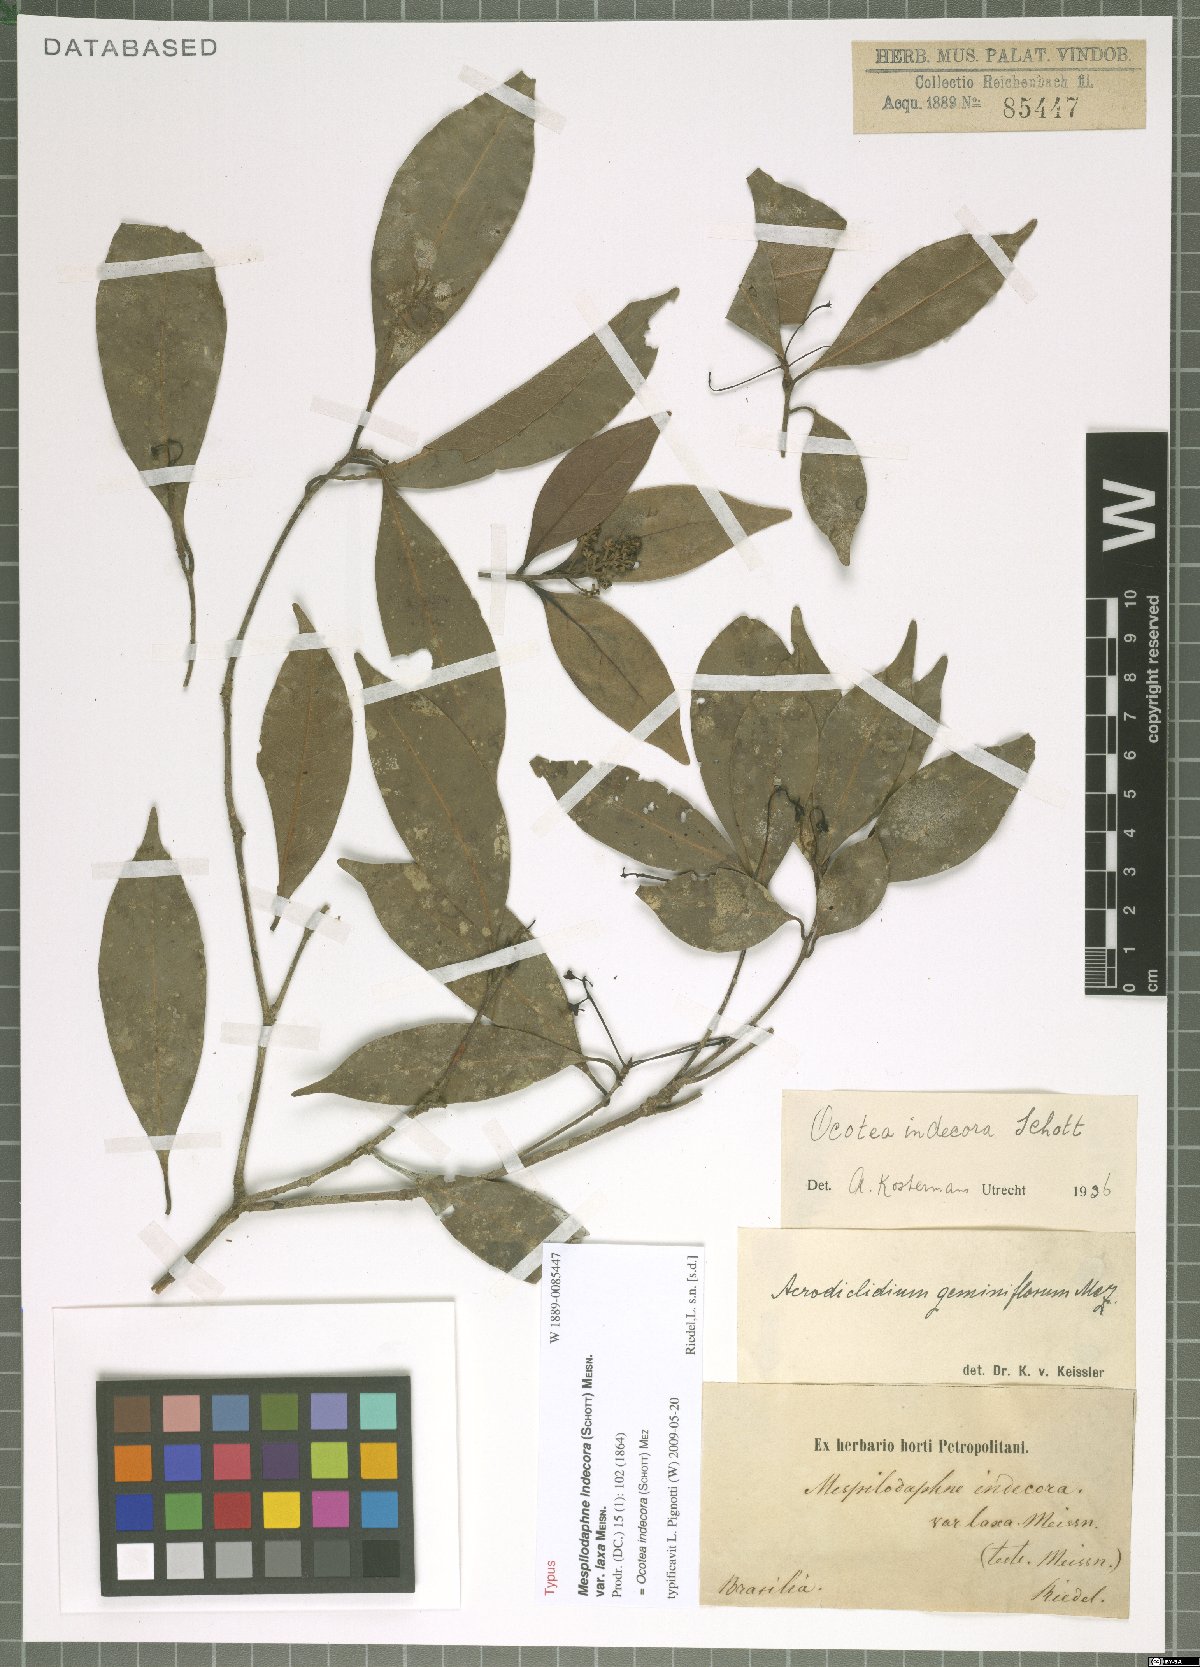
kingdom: Plantae
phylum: Tracheophyta
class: Magnoliopsida
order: Laurales
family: Lauraceae
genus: Mespilodaphne
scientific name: Mespilodaphne indecora
